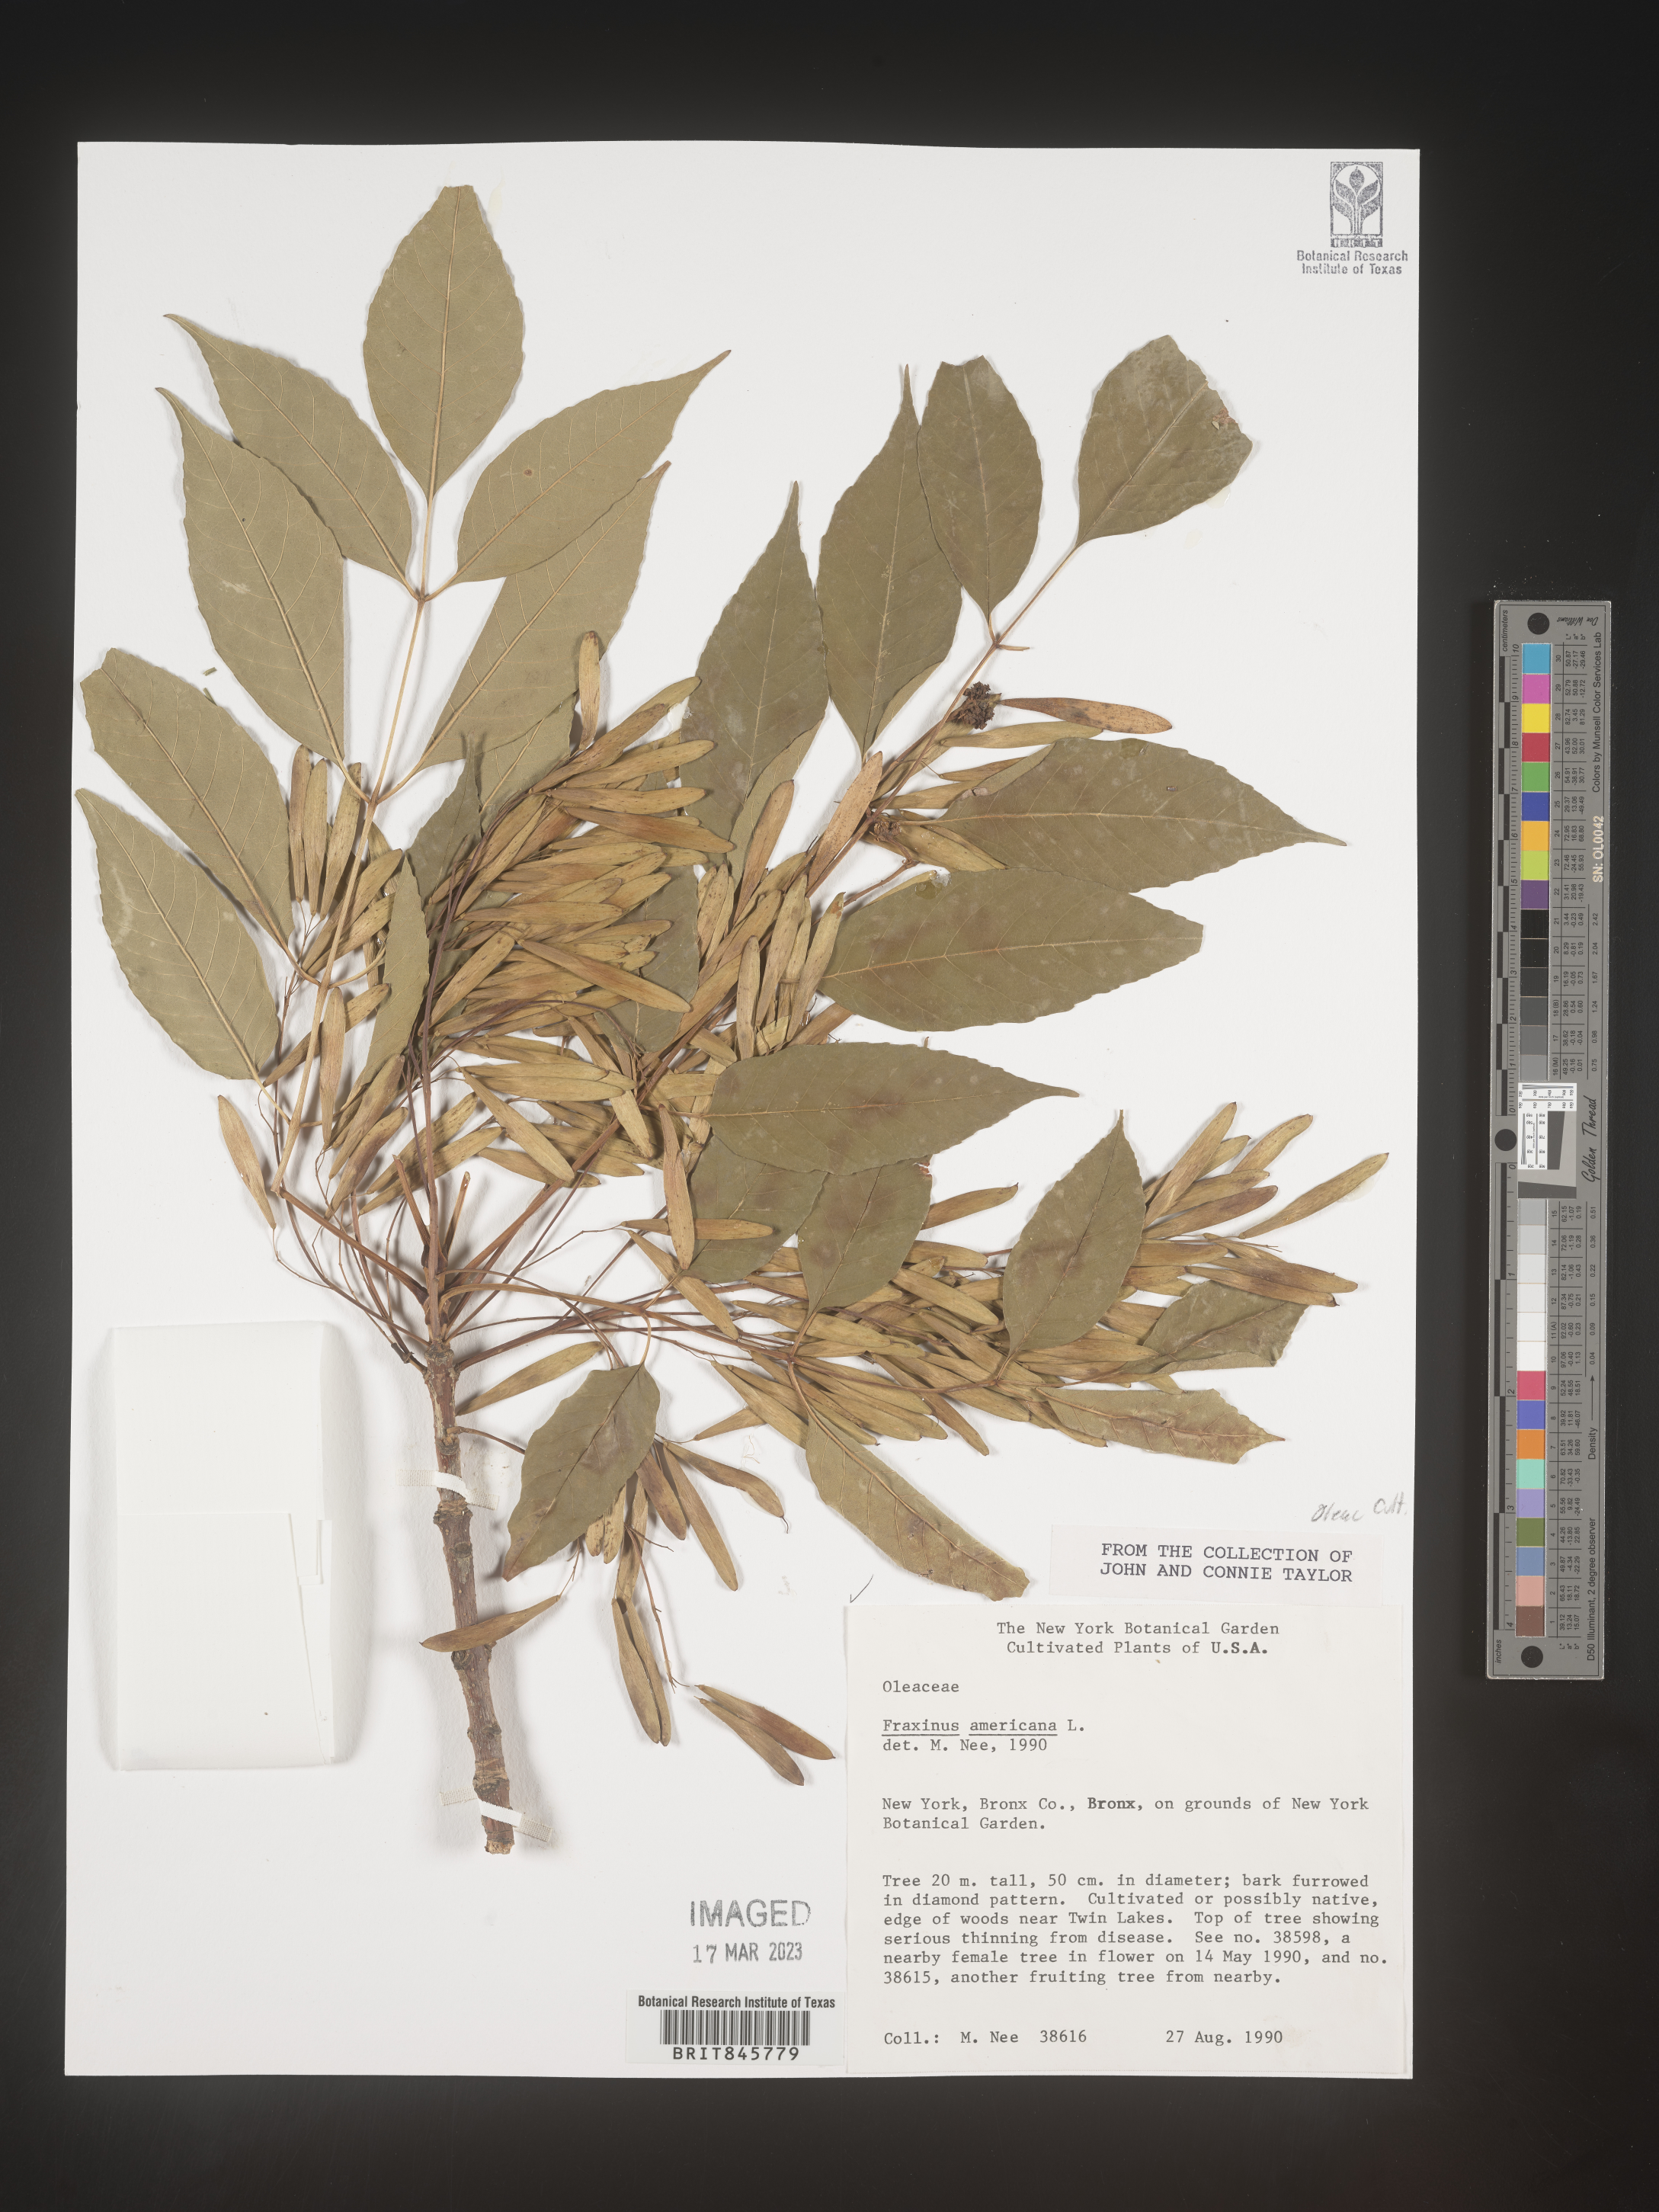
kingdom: Plantae
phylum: Tracheophyta
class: Magnoliopsida
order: Lamiales
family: Oleaceae
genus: Fraxinus
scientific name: Fraxinus americana
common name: White ash
